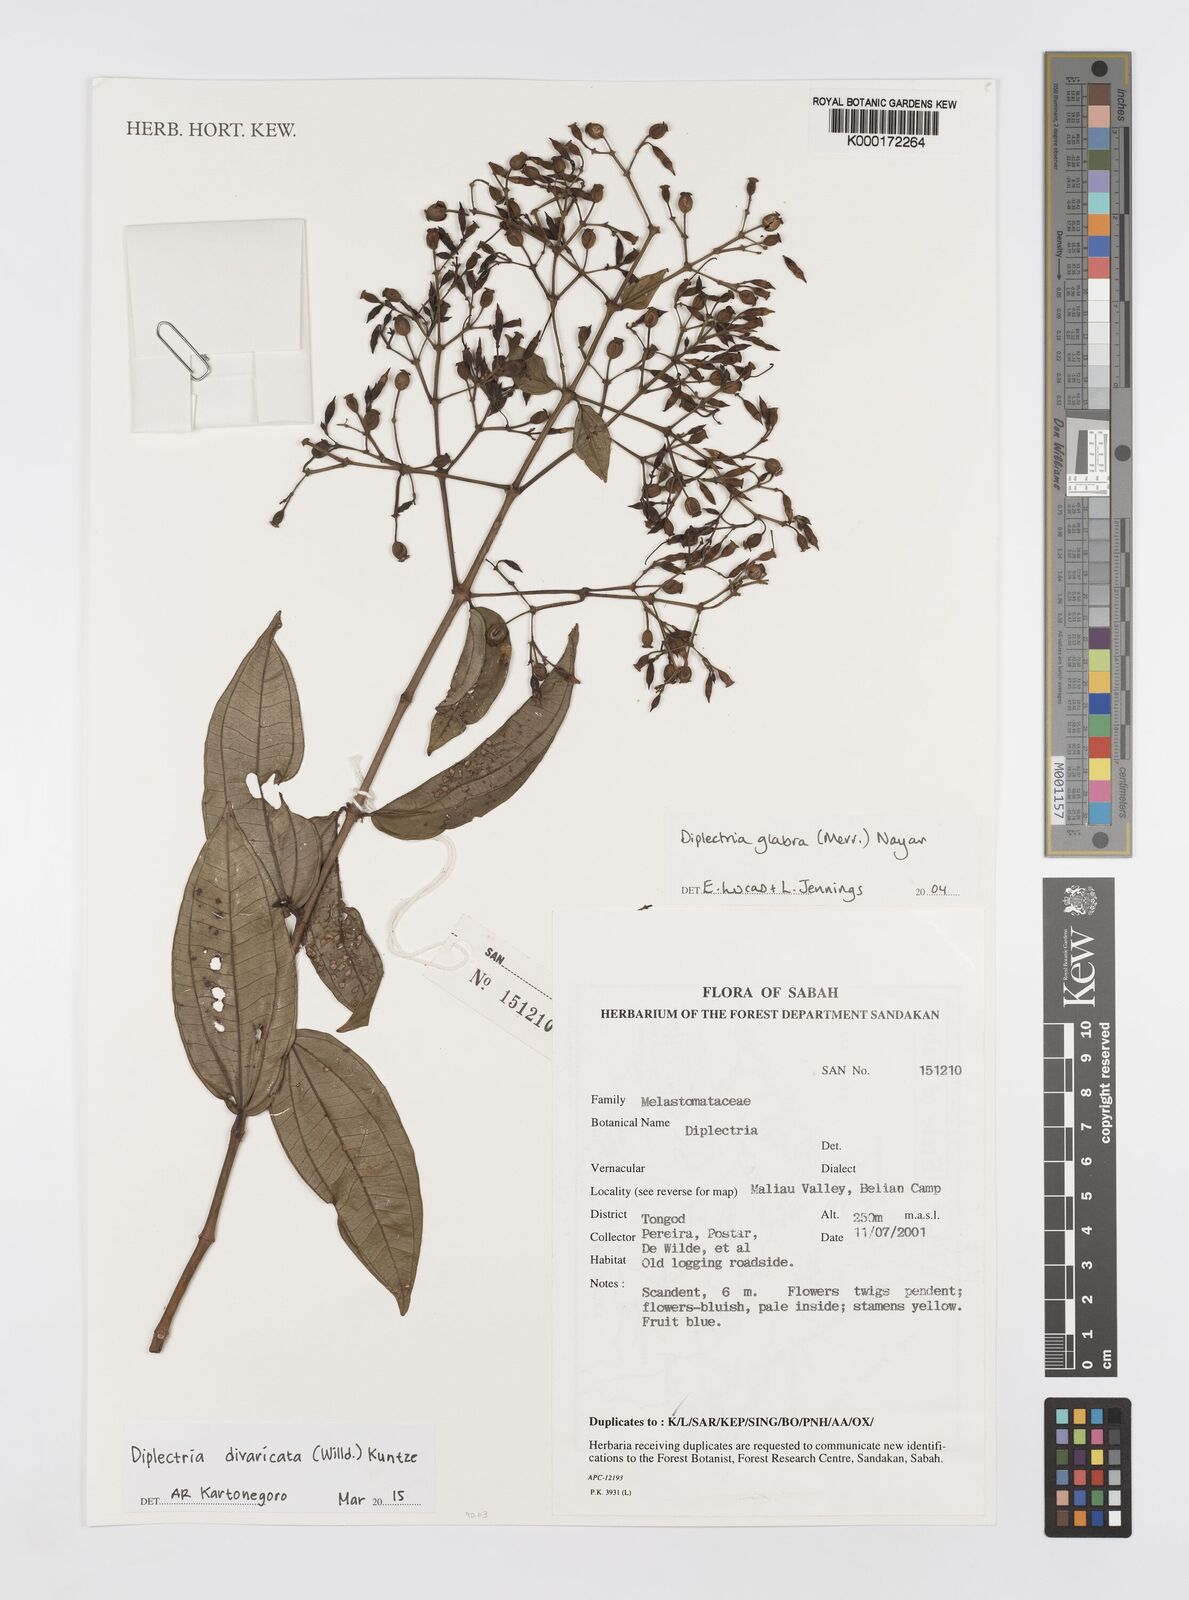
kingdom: Plantae
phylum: Tracheophyta
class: Magnoliopsida
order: Myrtales
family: Melastomataceae
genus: Diplectria
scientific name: Diplectria divaricata
